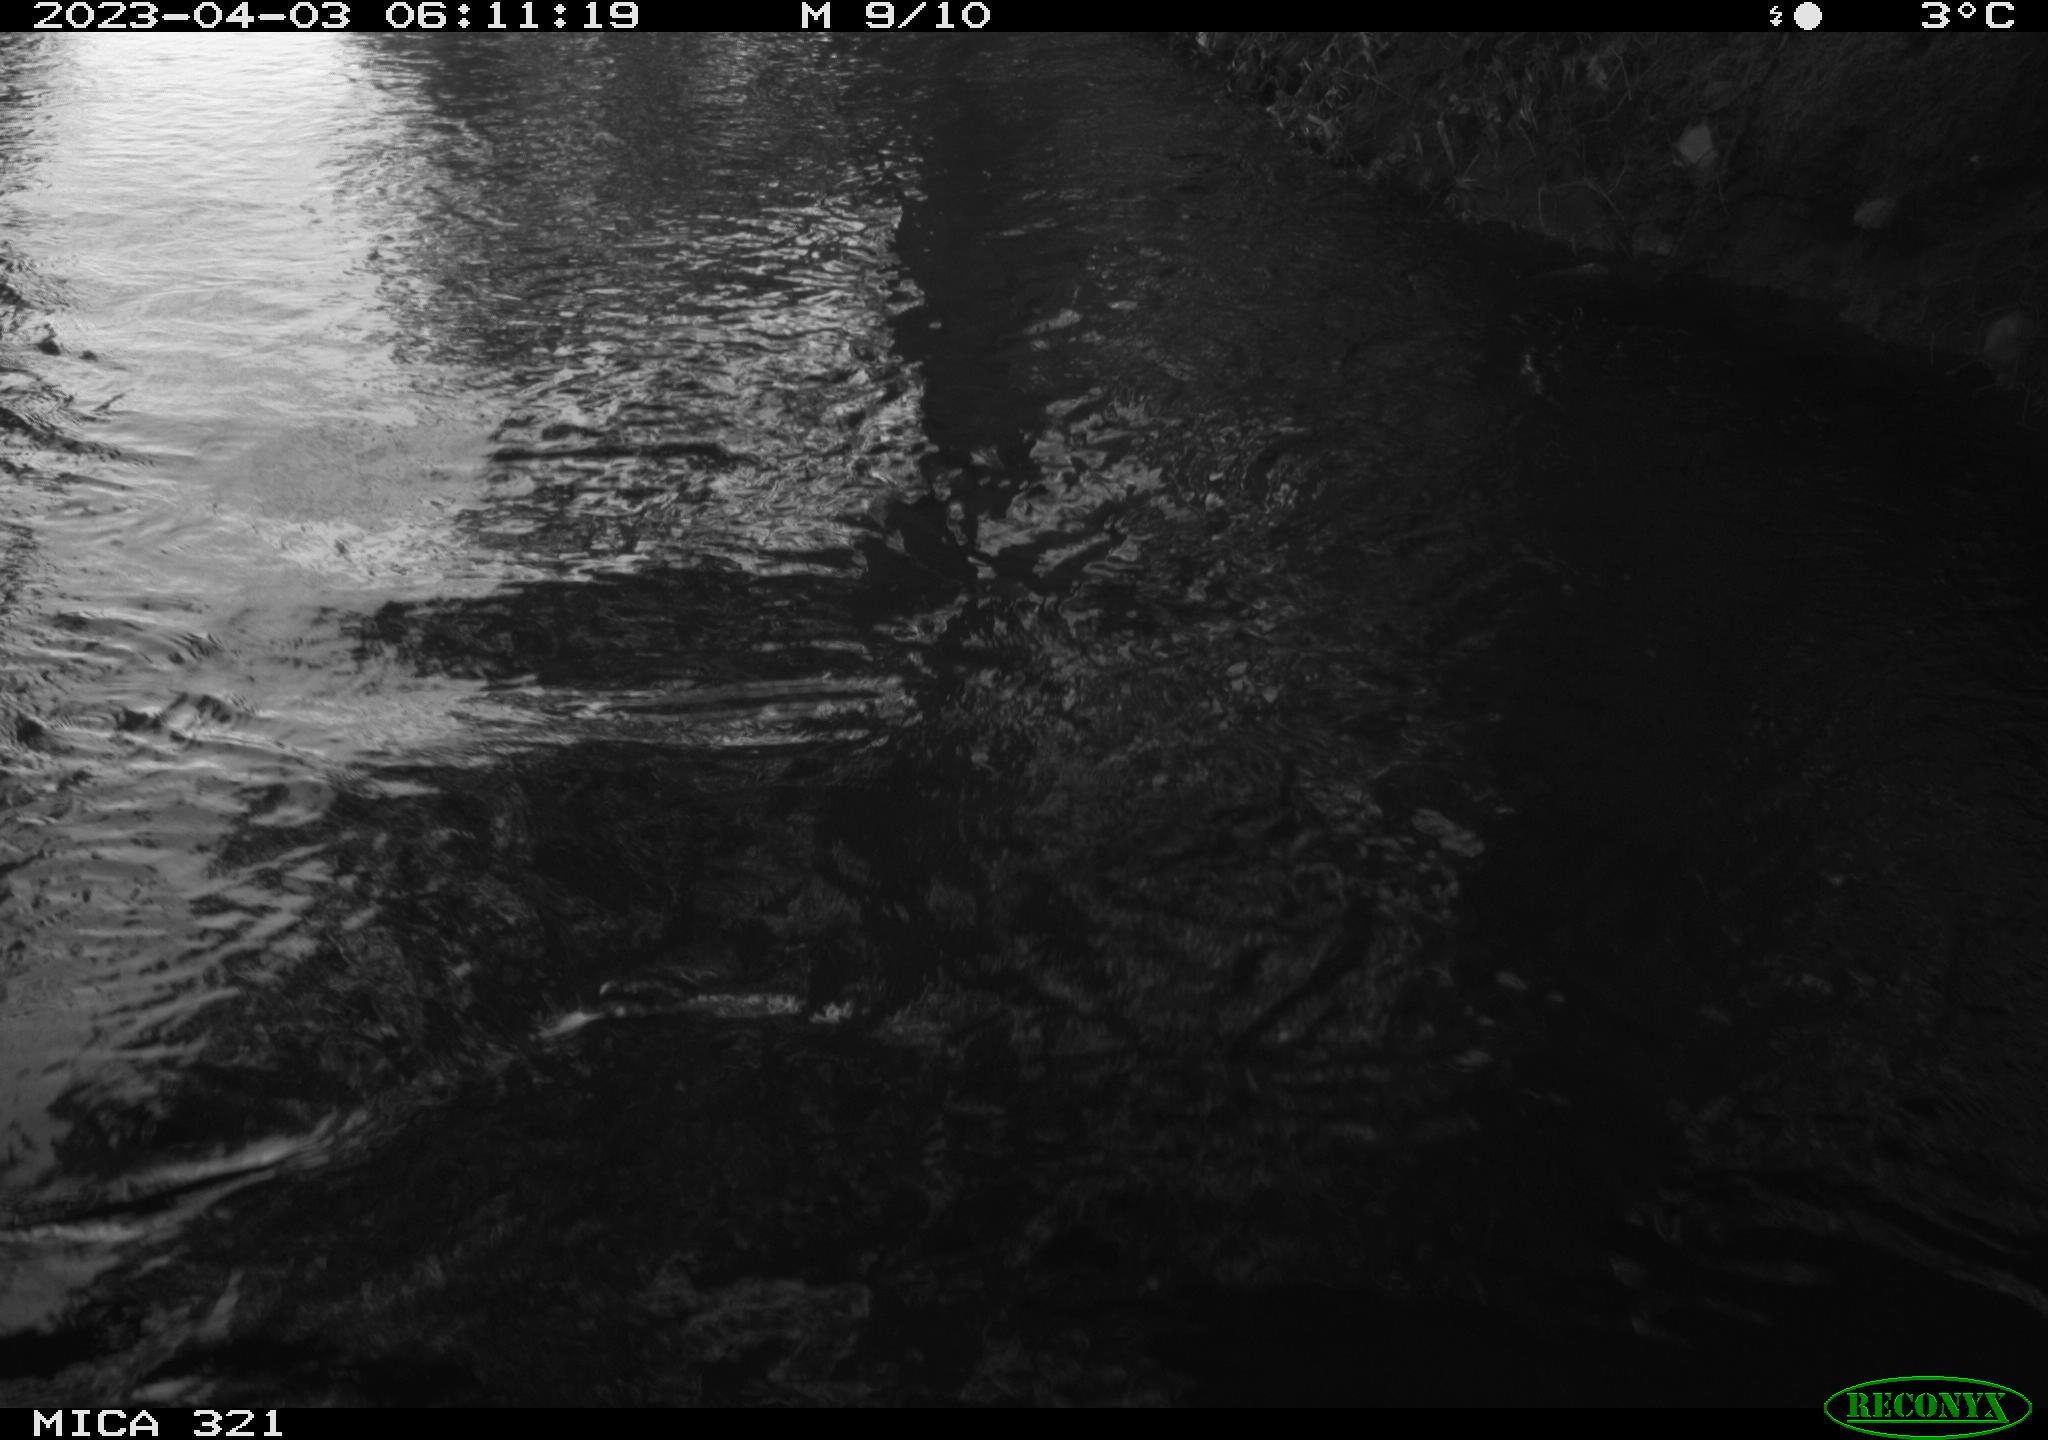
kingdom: Animalia
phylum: Chordata
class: Aves
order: Anseriformes
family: Anatidae
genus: Anas
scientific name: Anas
